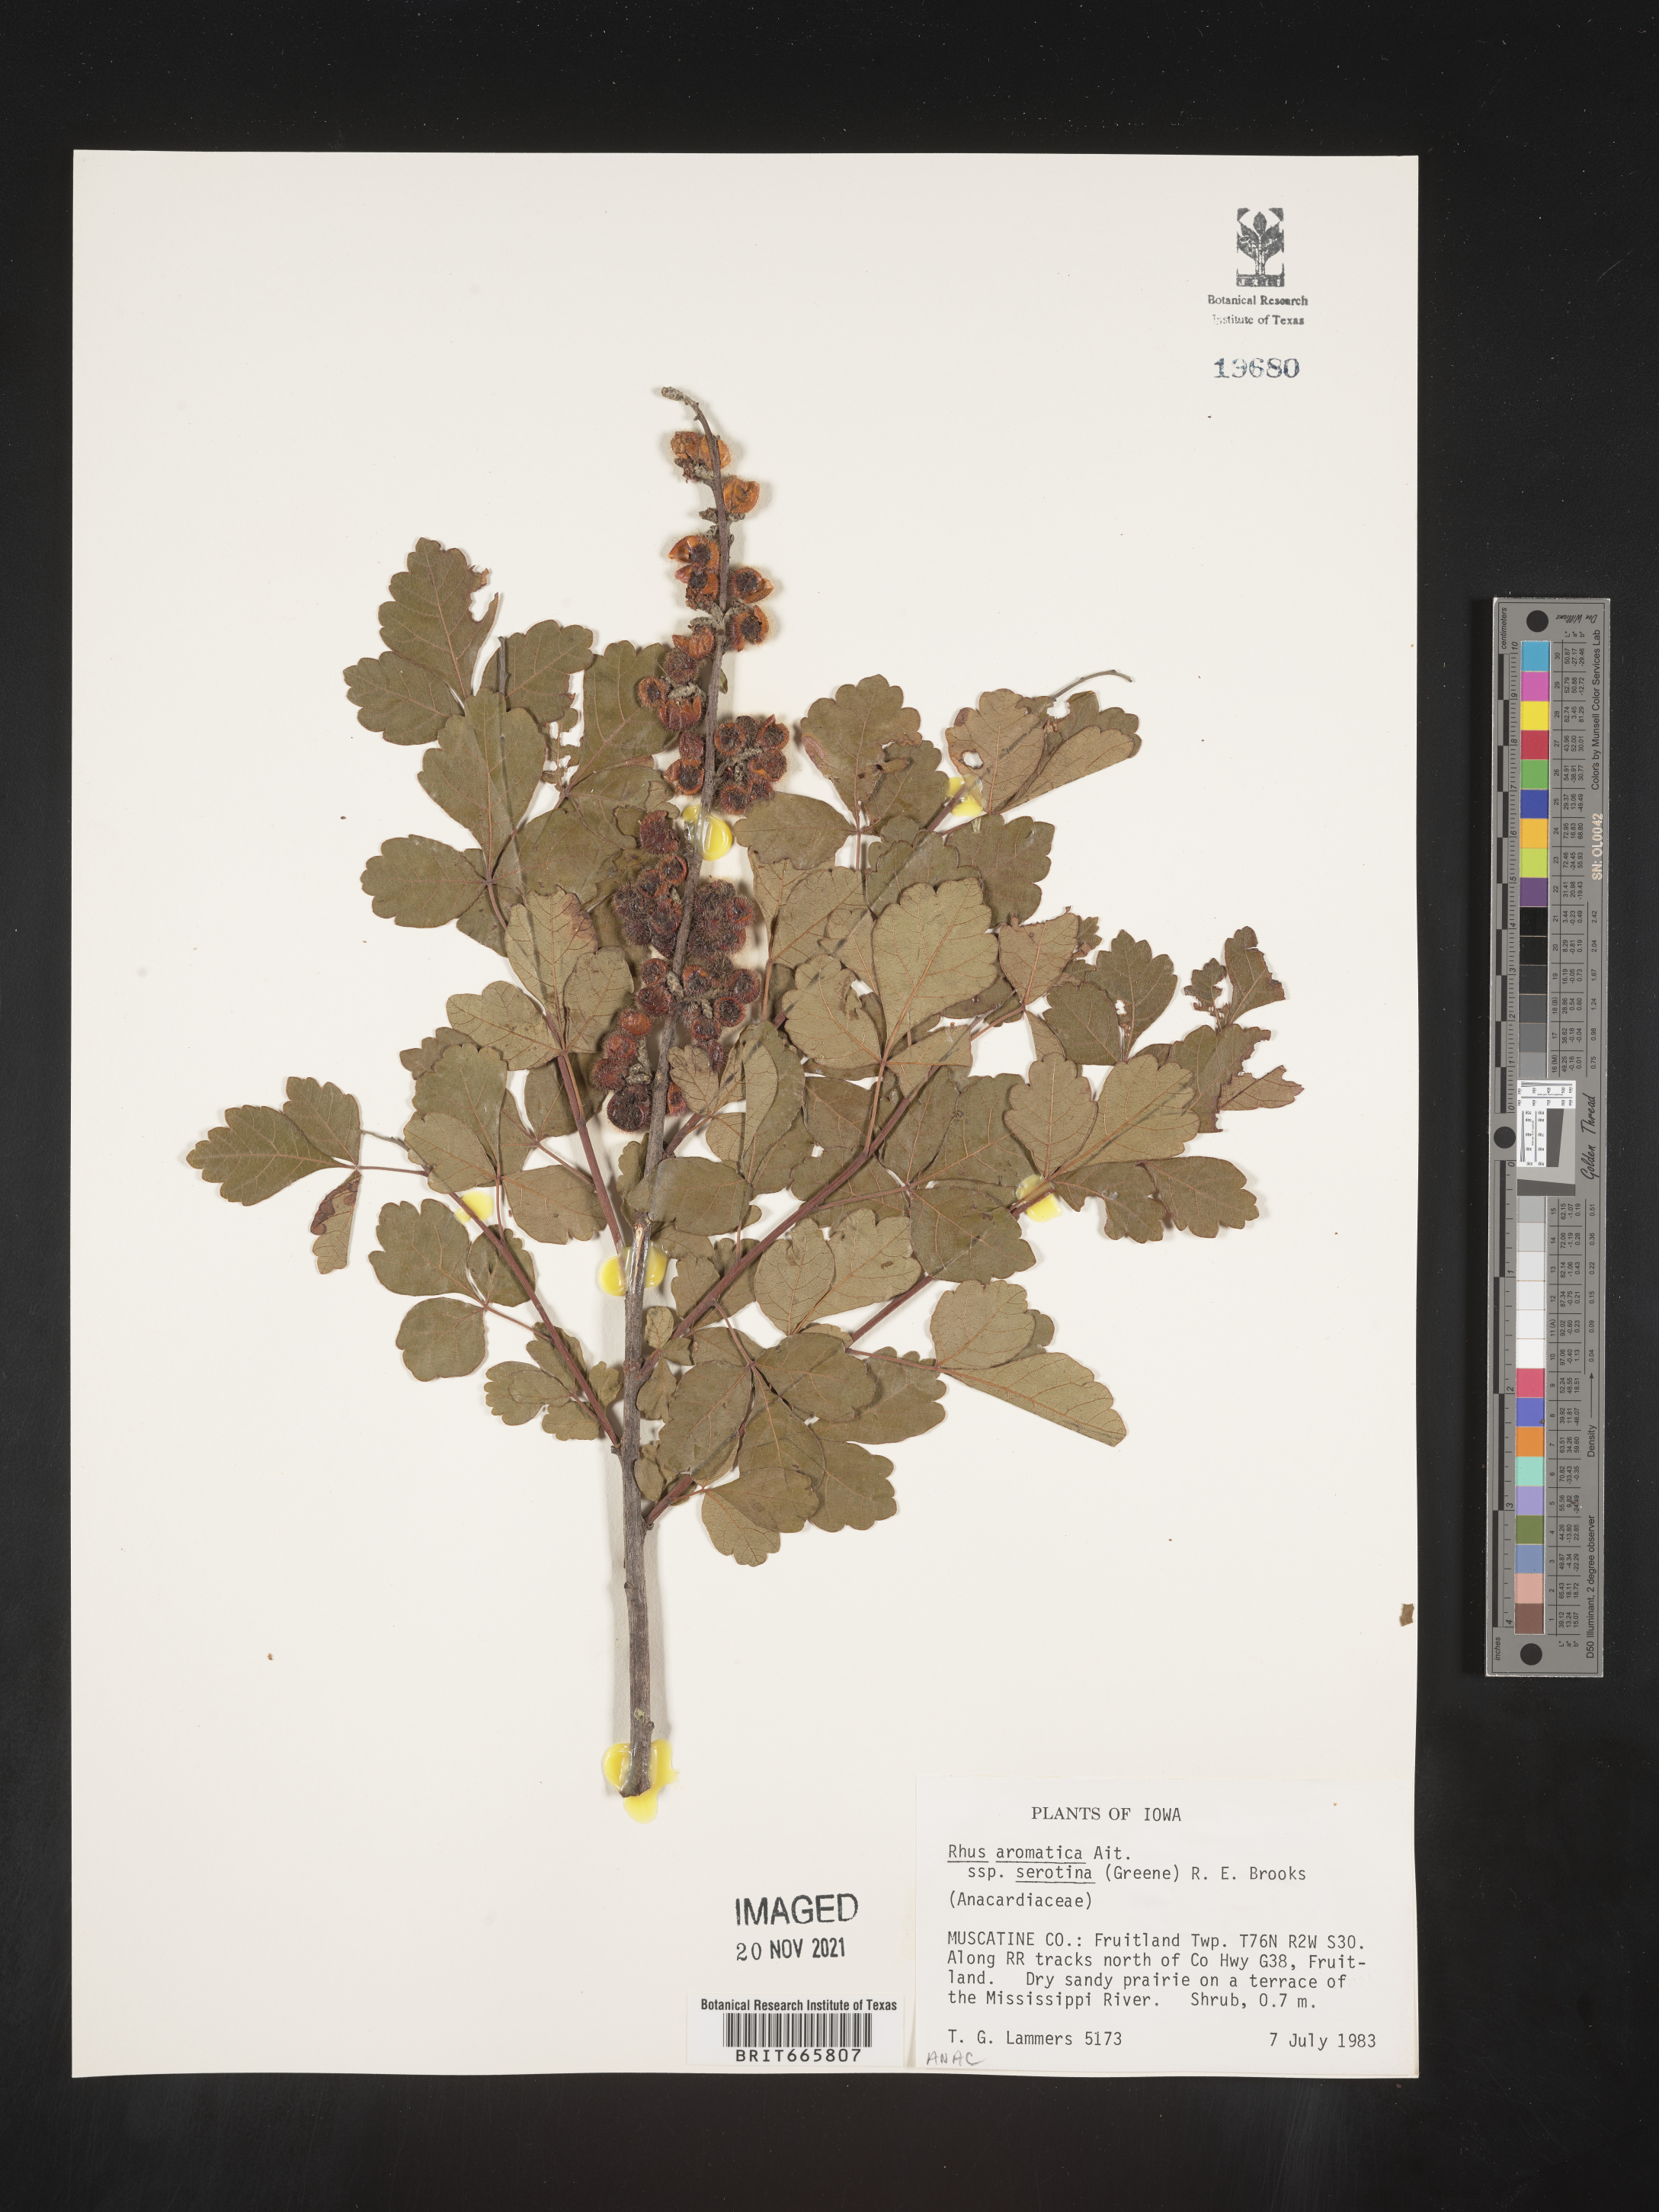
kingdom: Plantae
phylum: Tracheophyta
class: Magnoliopsida
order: Sapindales
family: Anacardiaceae
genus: Rhus
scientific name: Rhus aromatica
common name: Aromatic sumac
